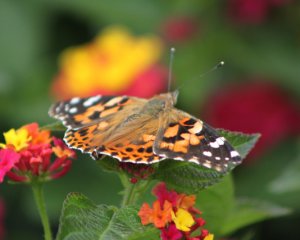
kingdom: Animalia
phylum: Arthropoda
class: Insecta
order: Lepidoptera
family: Nymphalidae
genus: Vanessa
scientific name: Vanessa cardui
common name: Painted Lady
